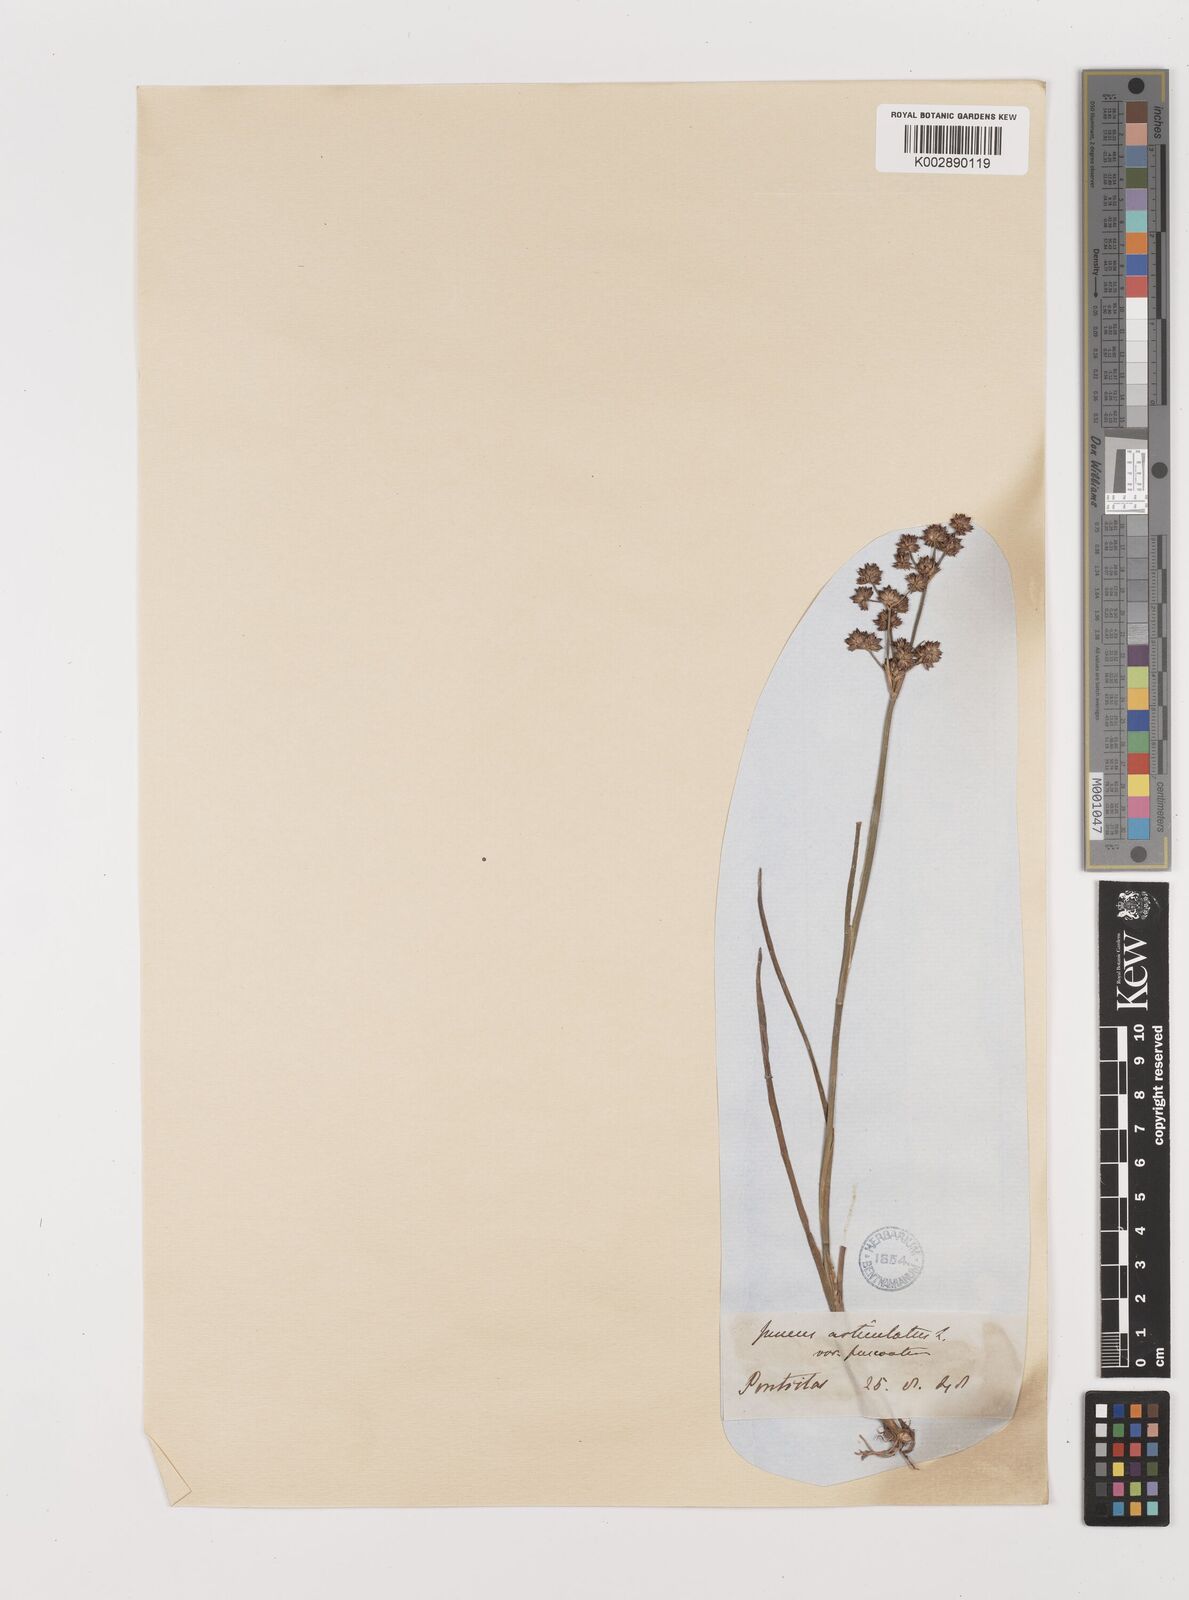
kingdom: Plantae
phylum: Tracheophyta
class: Liliopsida
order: Poales
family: Juncaceae
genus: Juncus
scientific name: Juncus articulatus
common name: Jointed rush
